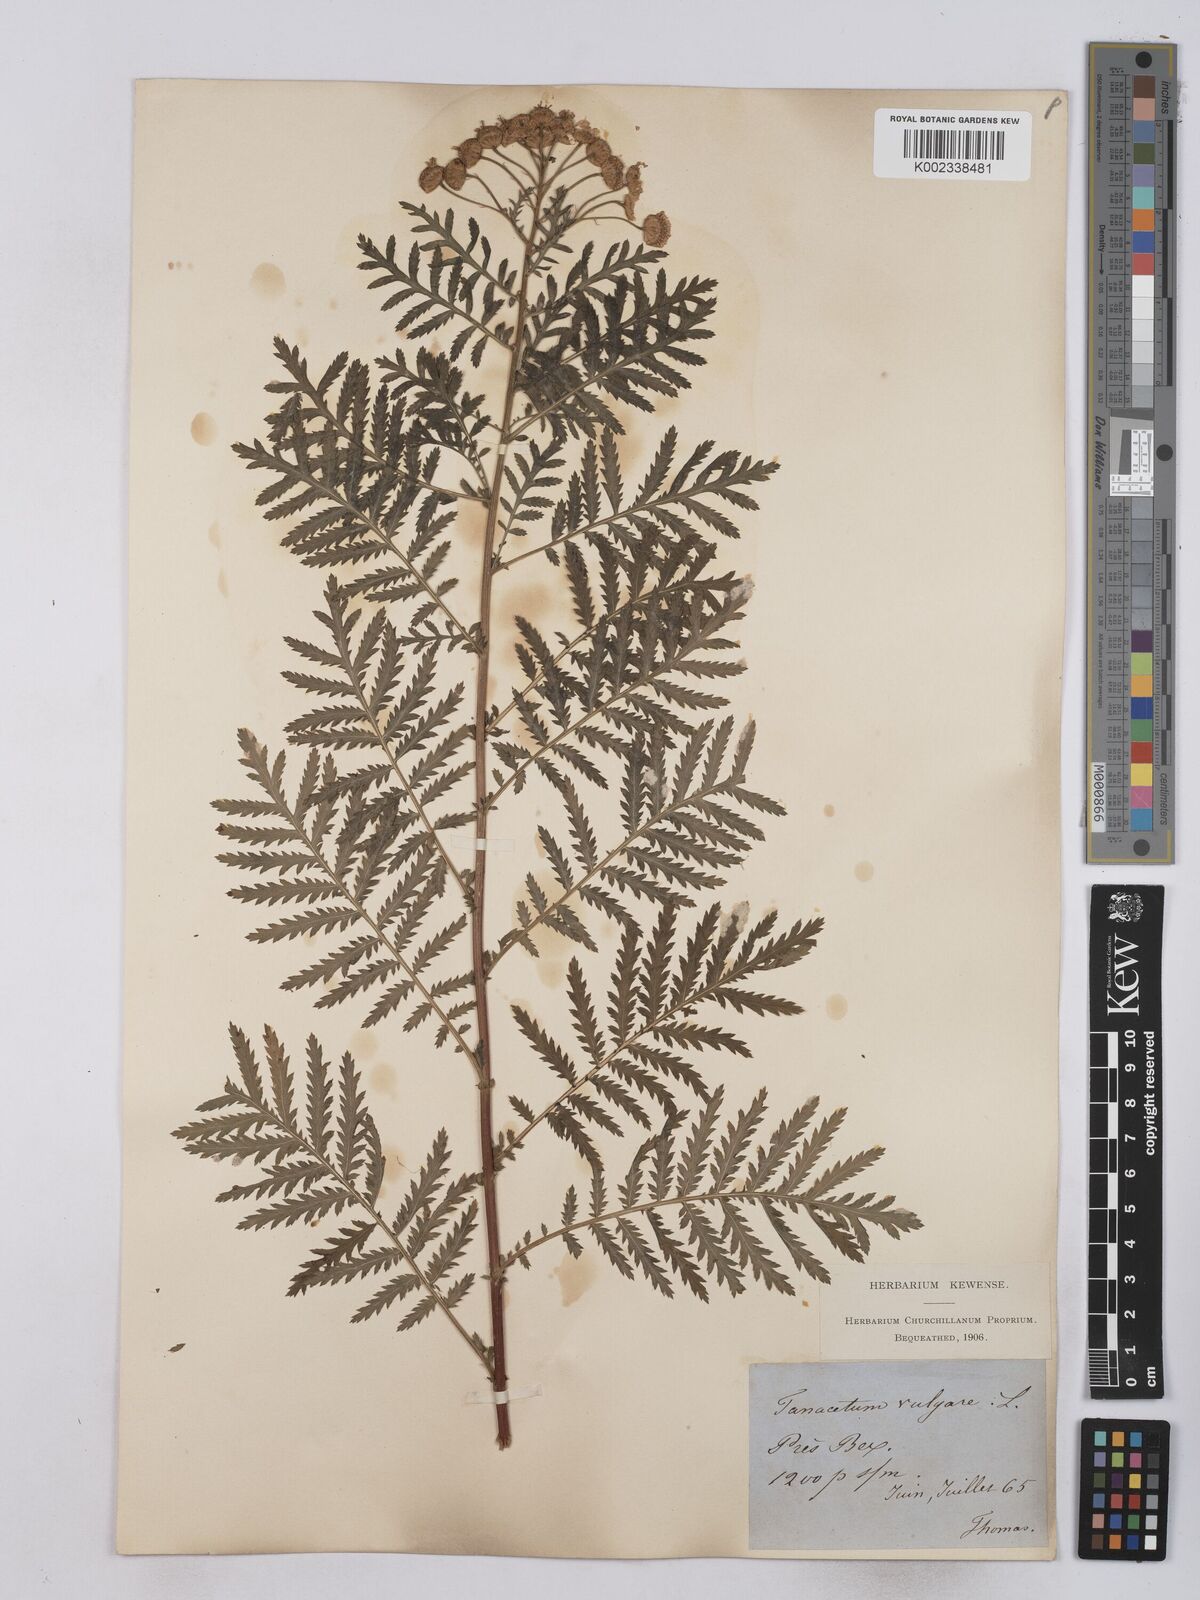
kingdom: Plantae
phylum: Tracheophyta
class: Magnoliopsida
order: Asterales
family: Asteraceae
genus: Tanacetum
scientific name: Tanacetum vulgare
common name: Common tansy
